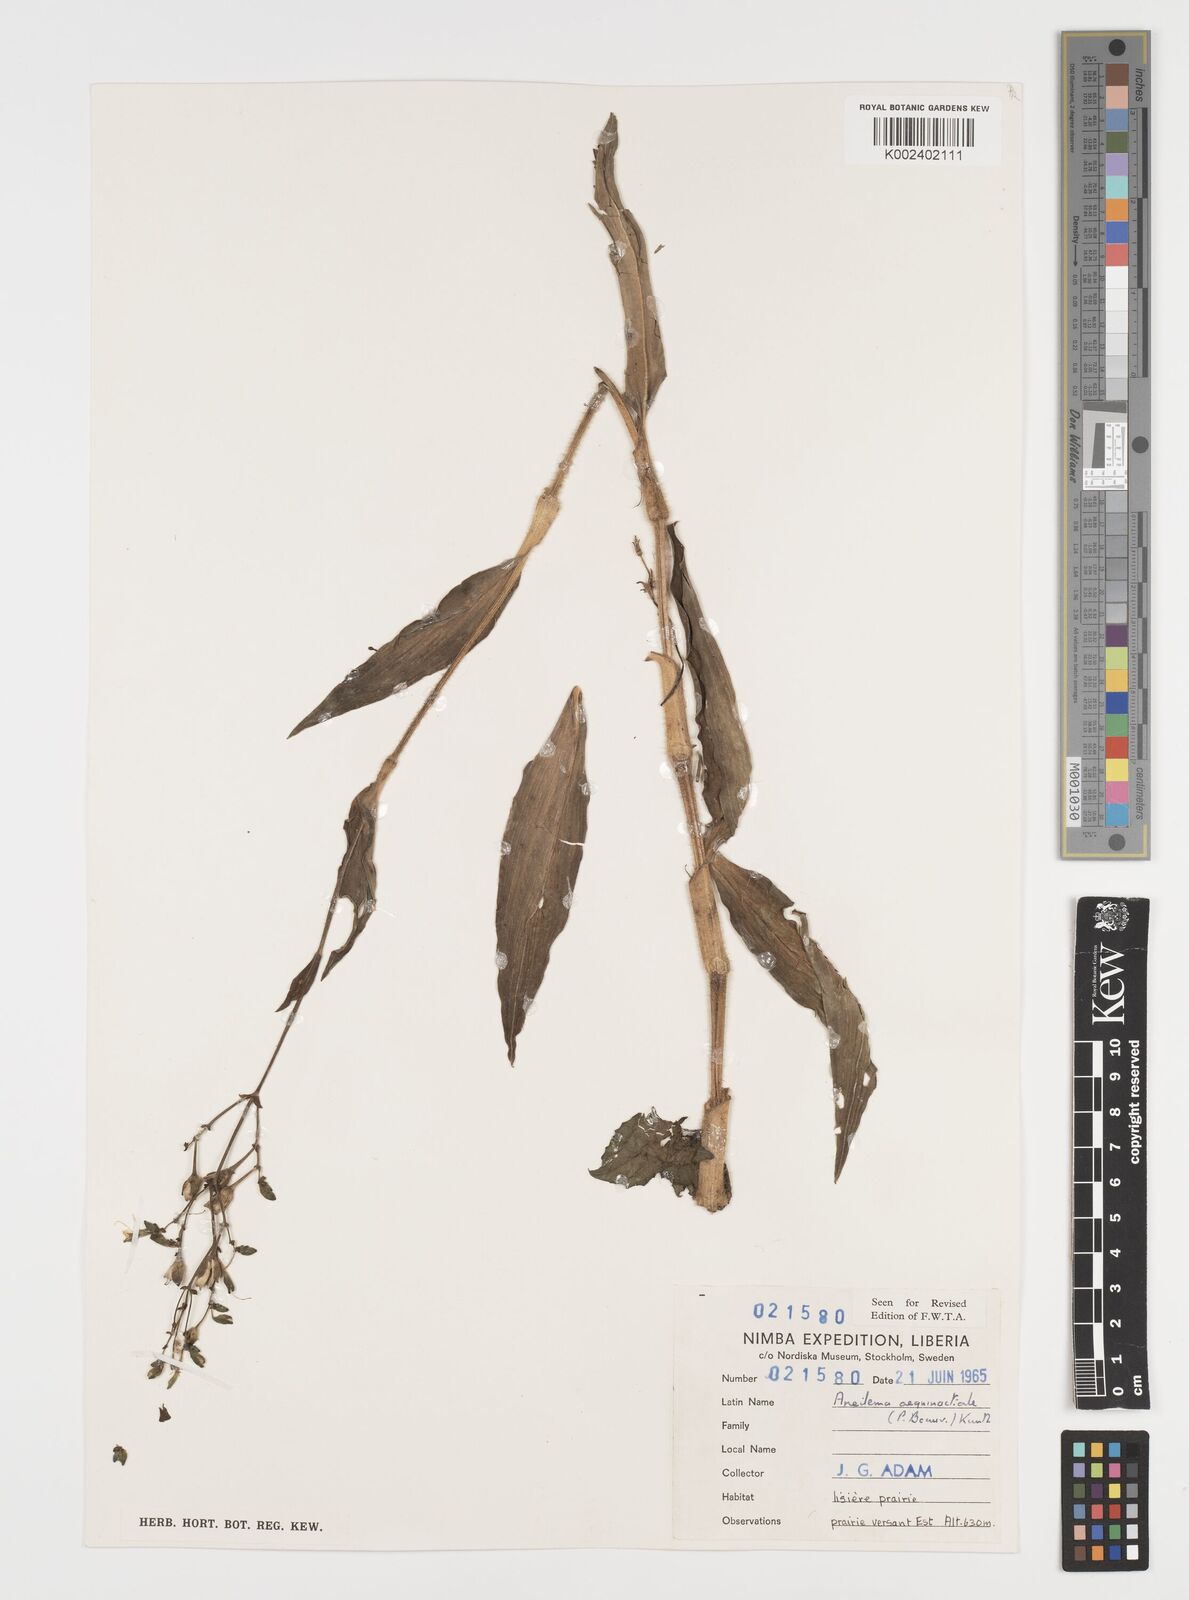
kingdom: Plantae
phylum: Tracheophyta
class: Liliopsida
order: Commelinales
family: Commelinaceae
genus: Aneilema
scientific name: Aneilema aequinoctiale
